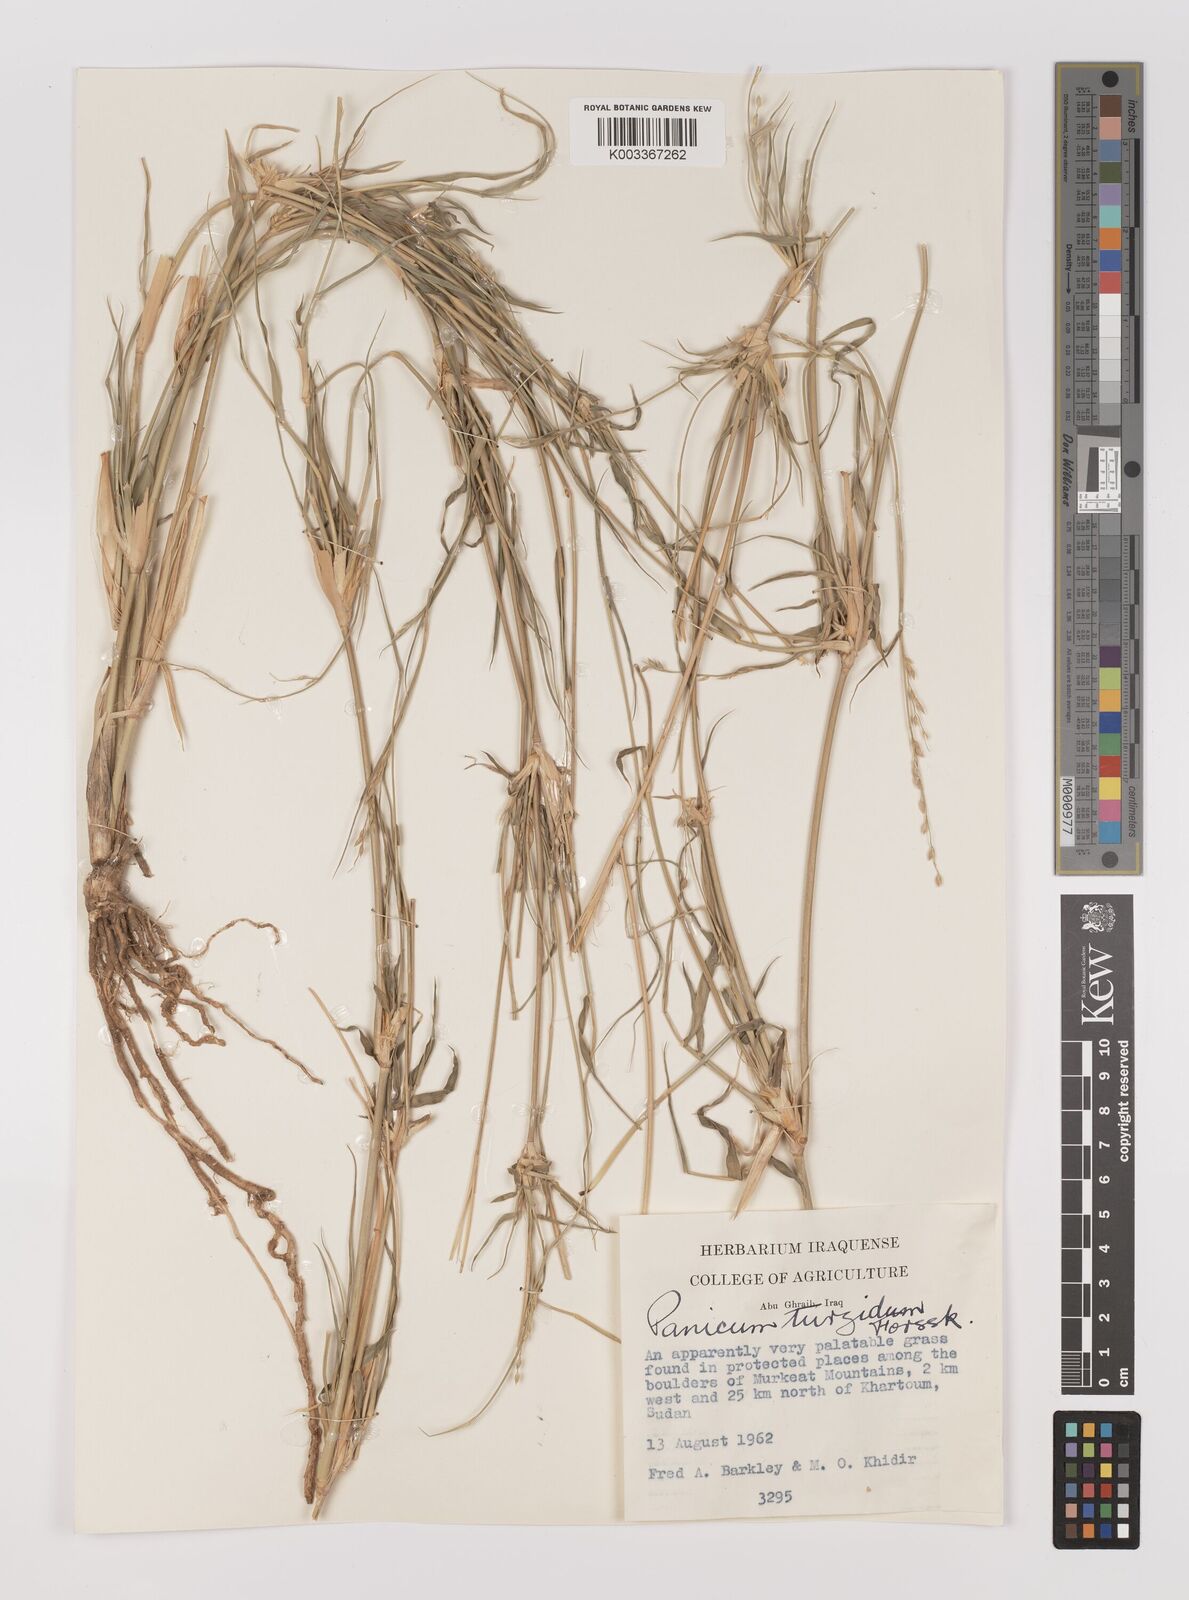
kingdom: Plantae
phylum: Tracheophyta
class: Liliopsida
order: Poales
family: Poaceae
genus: Panicum
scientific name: Panicum turgidum
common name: Desert grass
